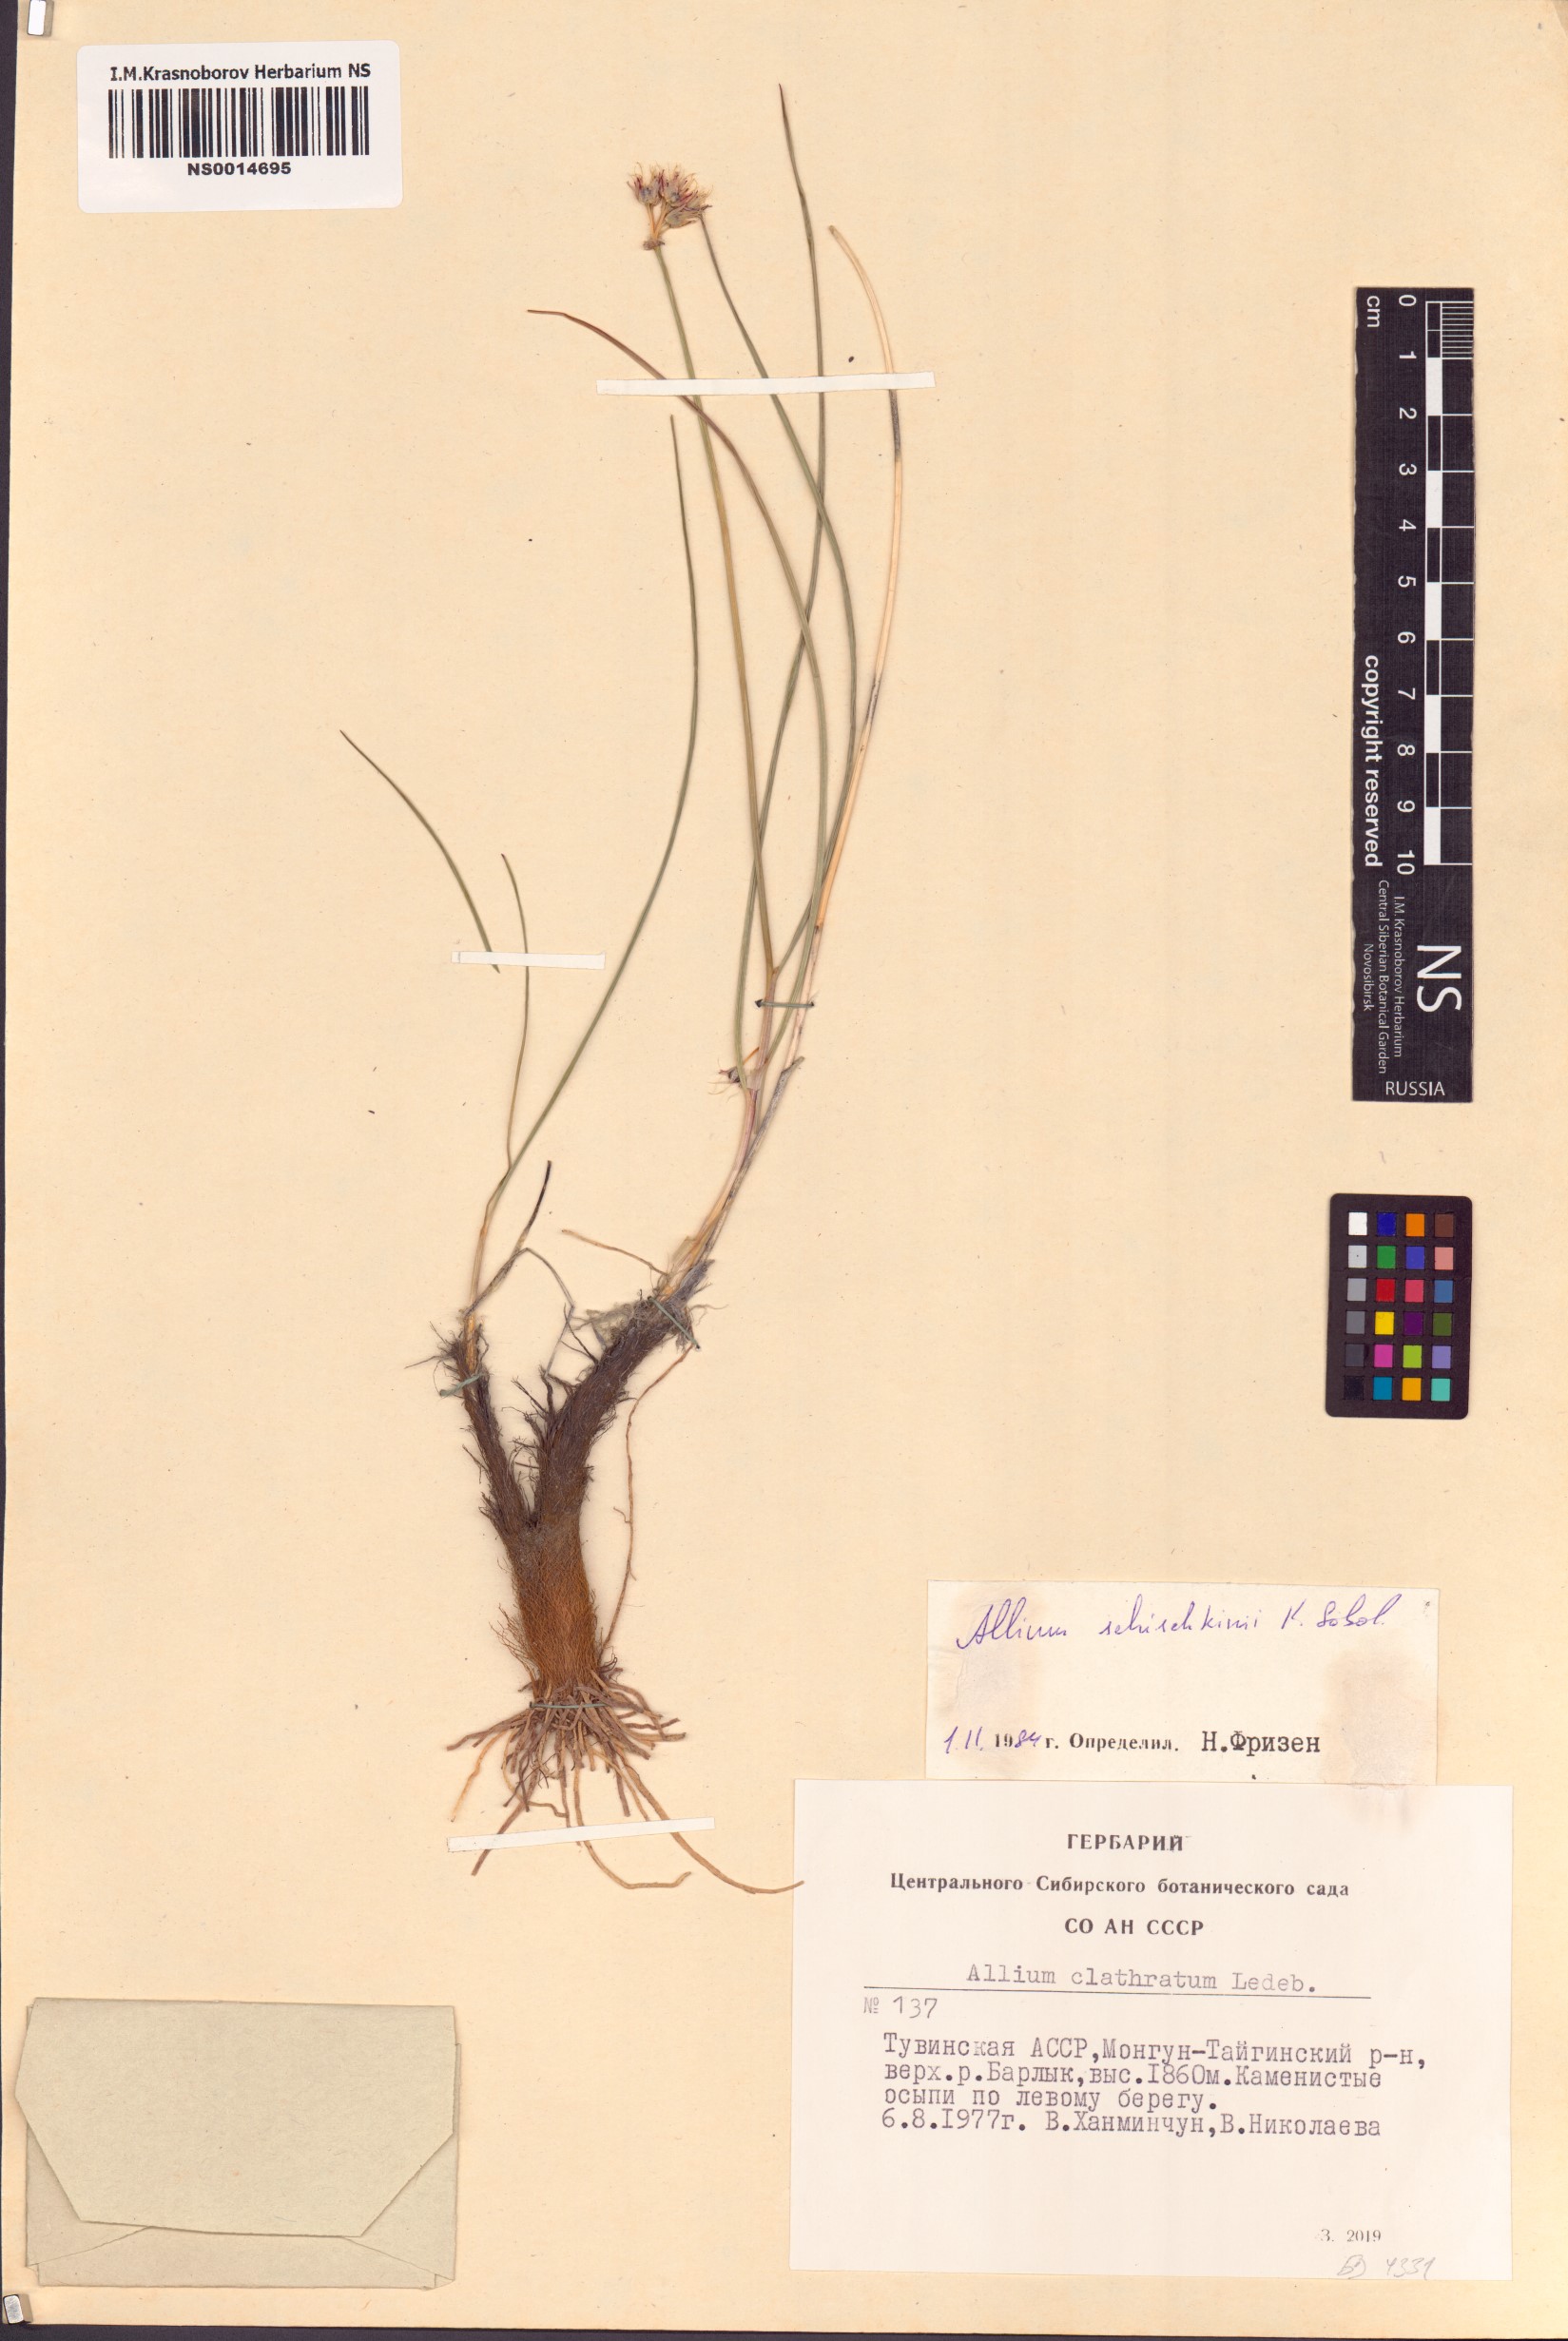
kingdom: Plantae
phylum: Tracheophyta
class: Liliopsida
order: Asparagales
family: Amaryllidaceae
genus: Allium
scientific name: Allium schischkinii
